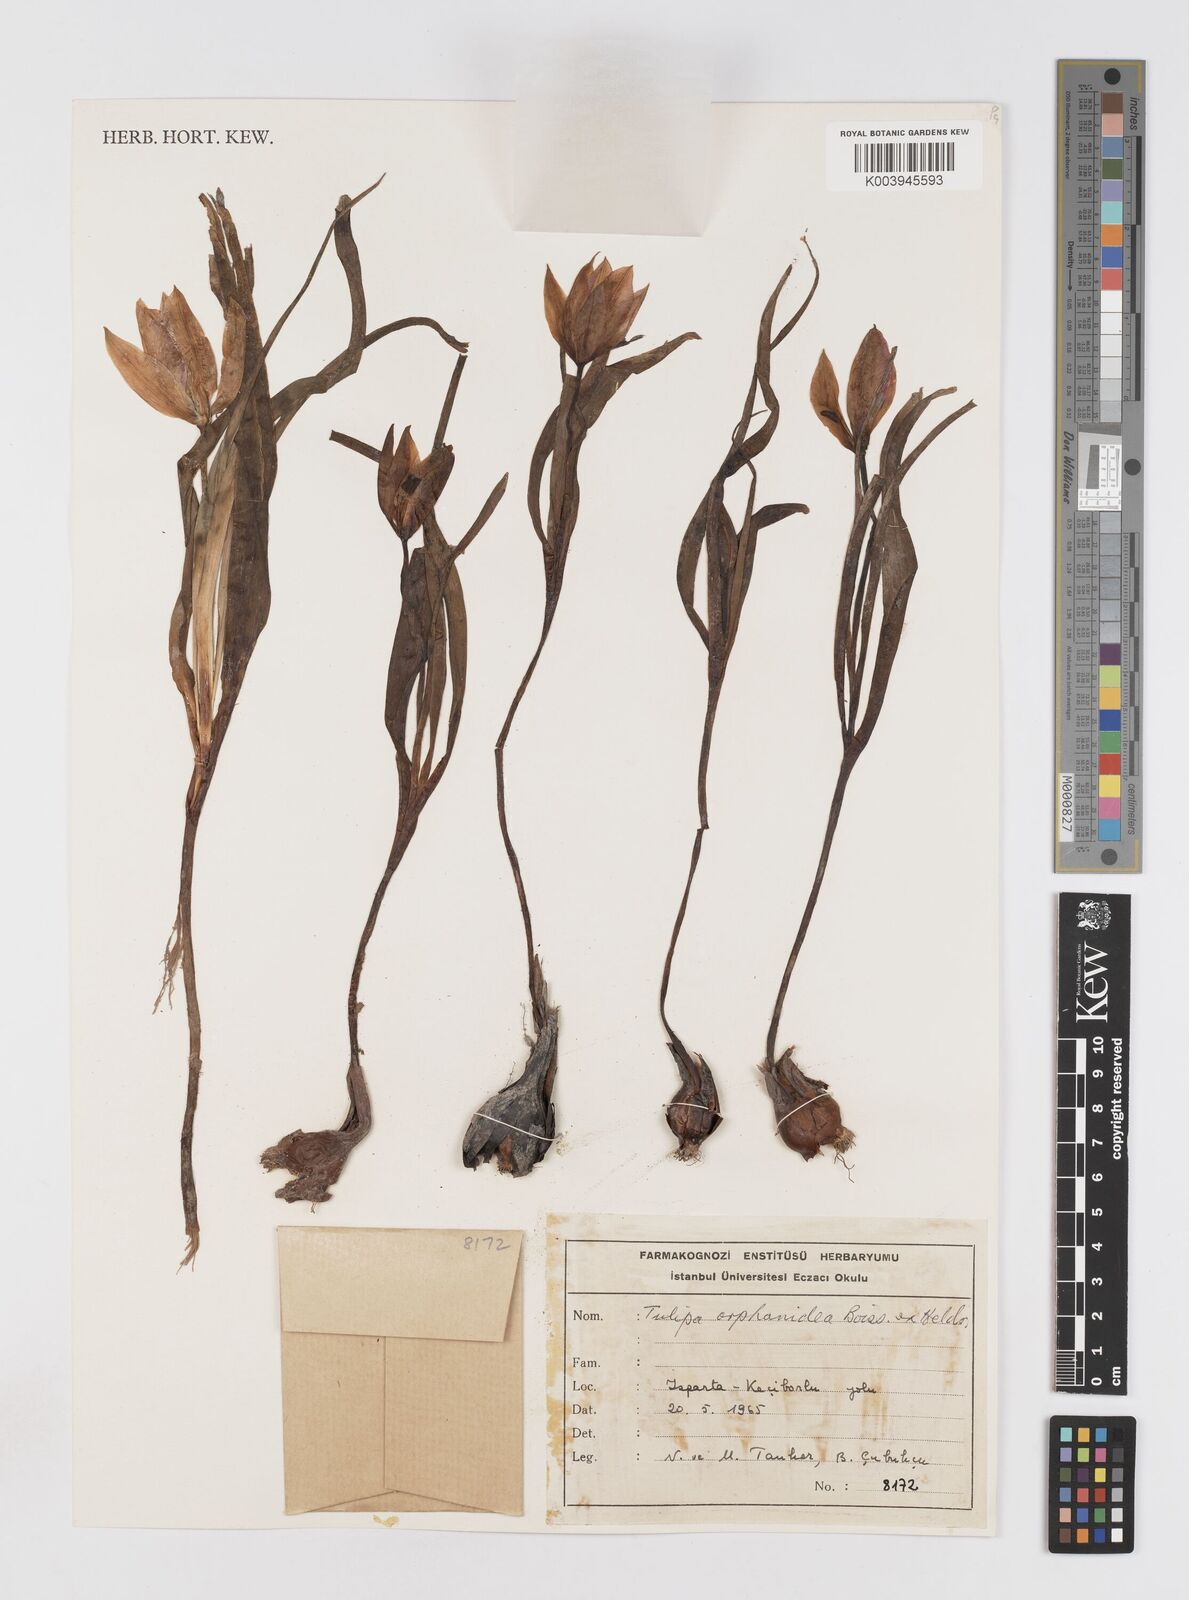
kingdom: Plantae
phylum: Tracheophyta
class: Liliopsida
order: Liliales
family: Liliaceae
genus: Tulipa
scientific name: Tulipa orphanidea
